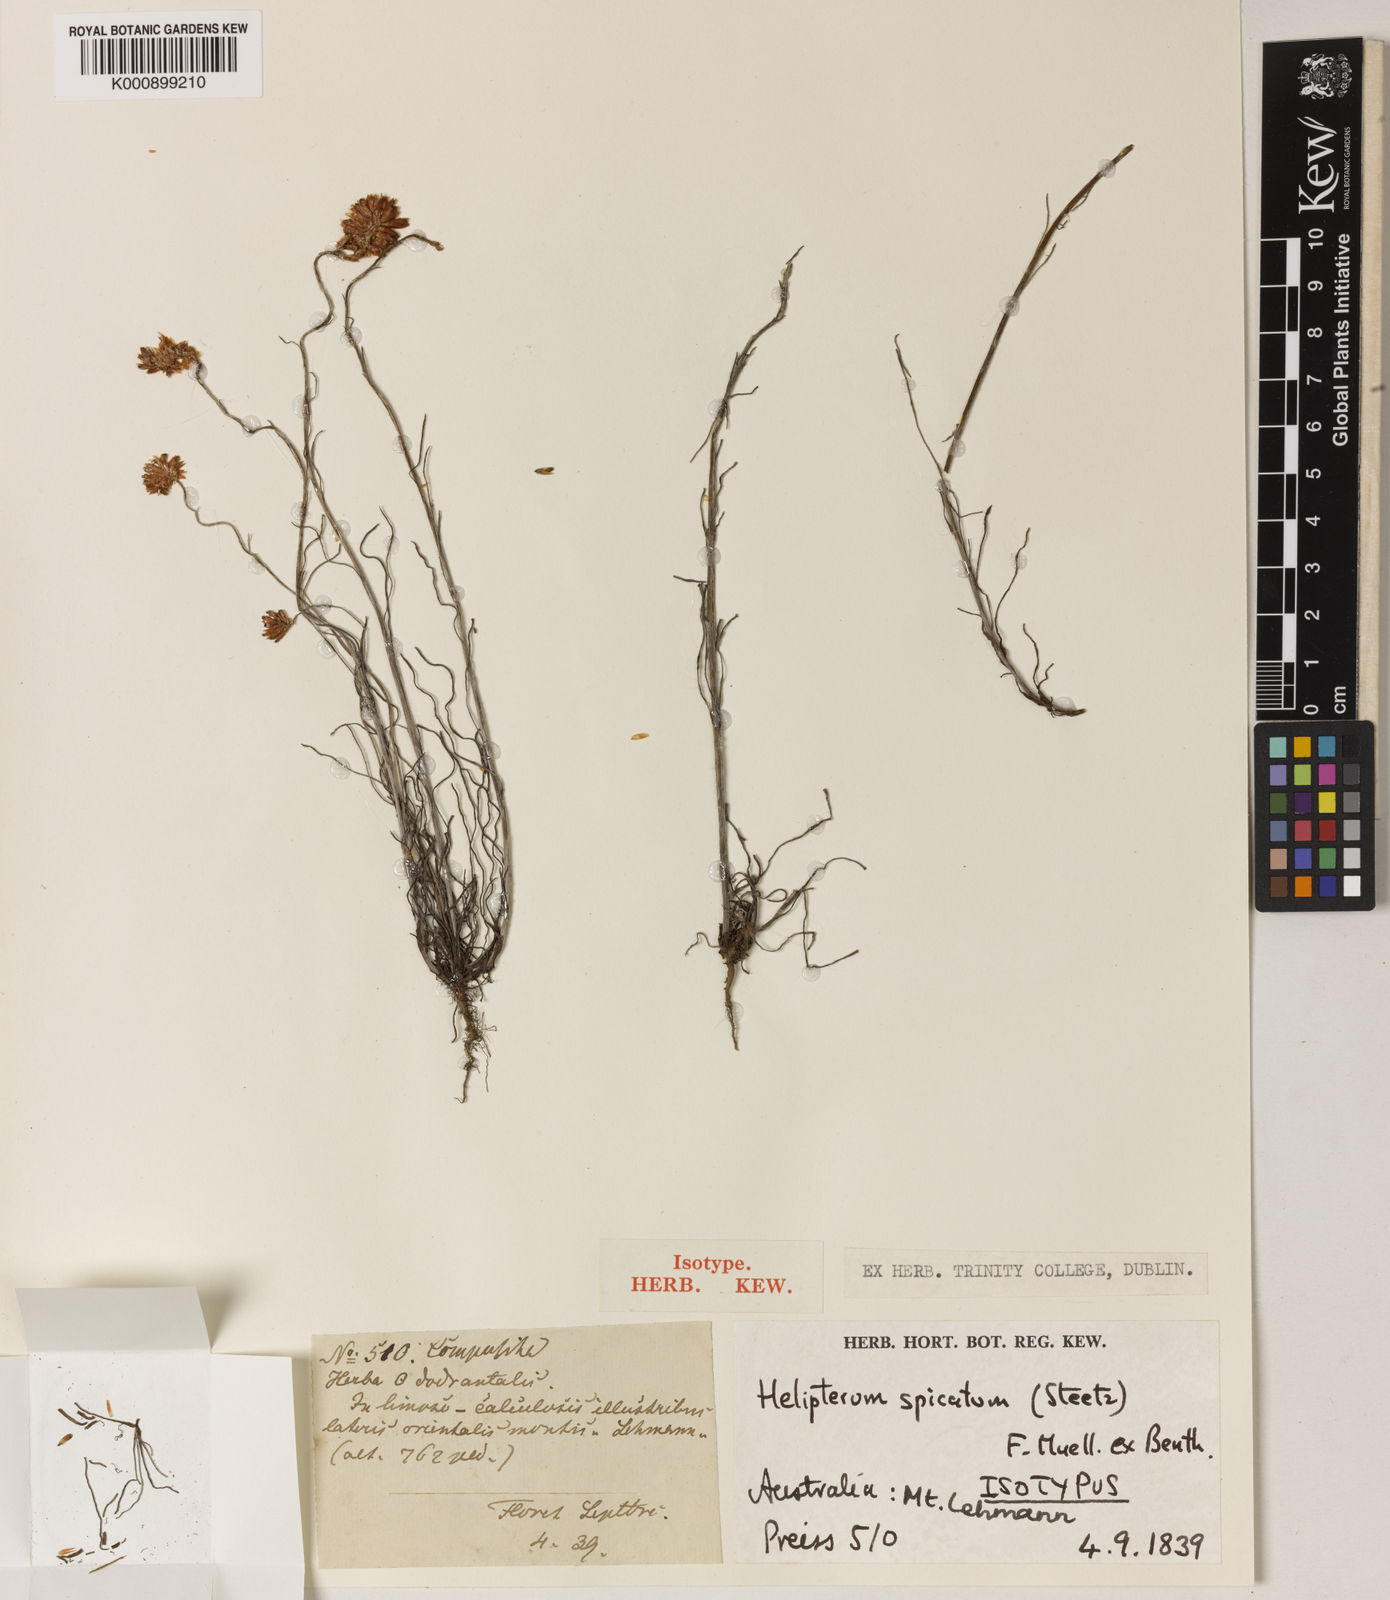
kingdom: Plantae
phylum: Tracheophyta
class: Magnoliopsida
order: Asterales
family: Asteraceae
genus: Rhodanthe
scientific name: Rhodanthe spicata
